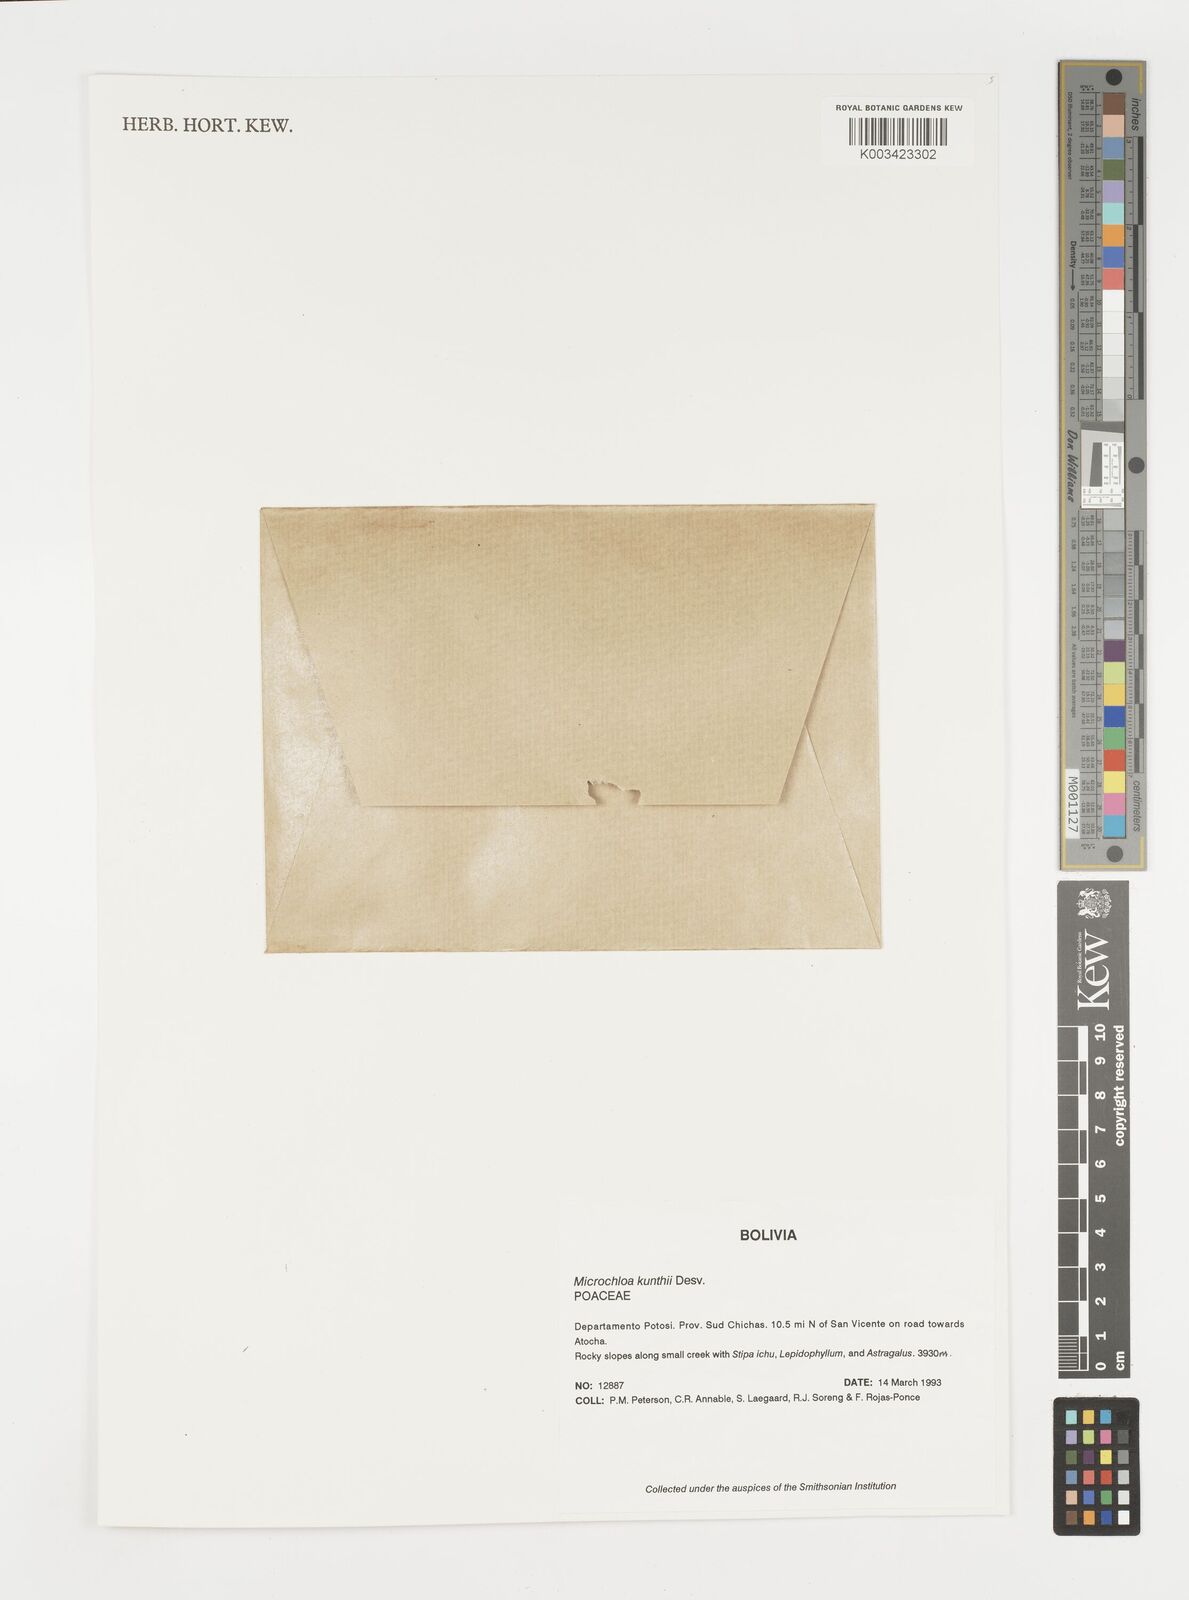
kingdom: Plantae
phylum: Tracheophyta
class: Liliopsida
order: Poales
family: Poaceae
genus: Microchloa
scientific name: Microchloa kunthii
